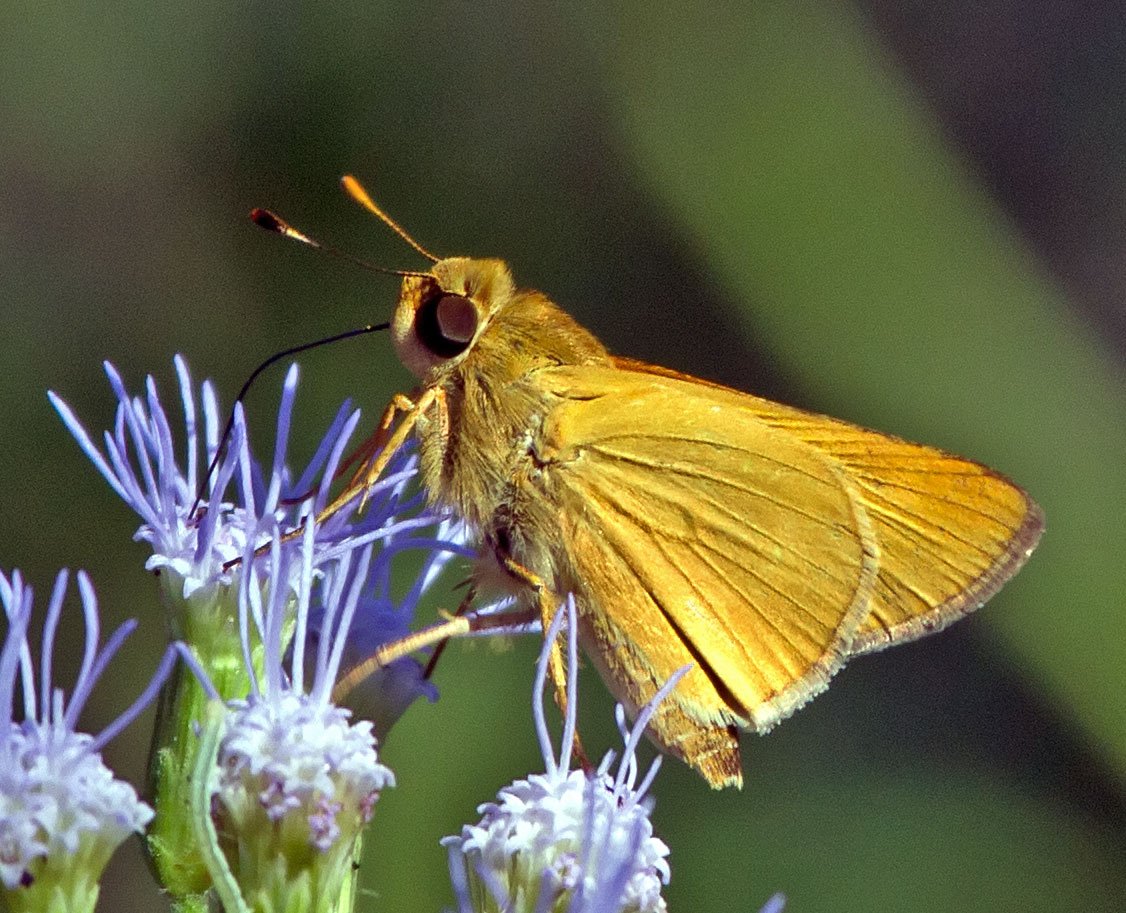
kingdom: Animalia
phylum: Arthropoda
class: Insecta
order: Lepidoptera
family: Hesperiidae
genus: Mellana
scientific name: Mellana eulogius
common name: Common Mellana
